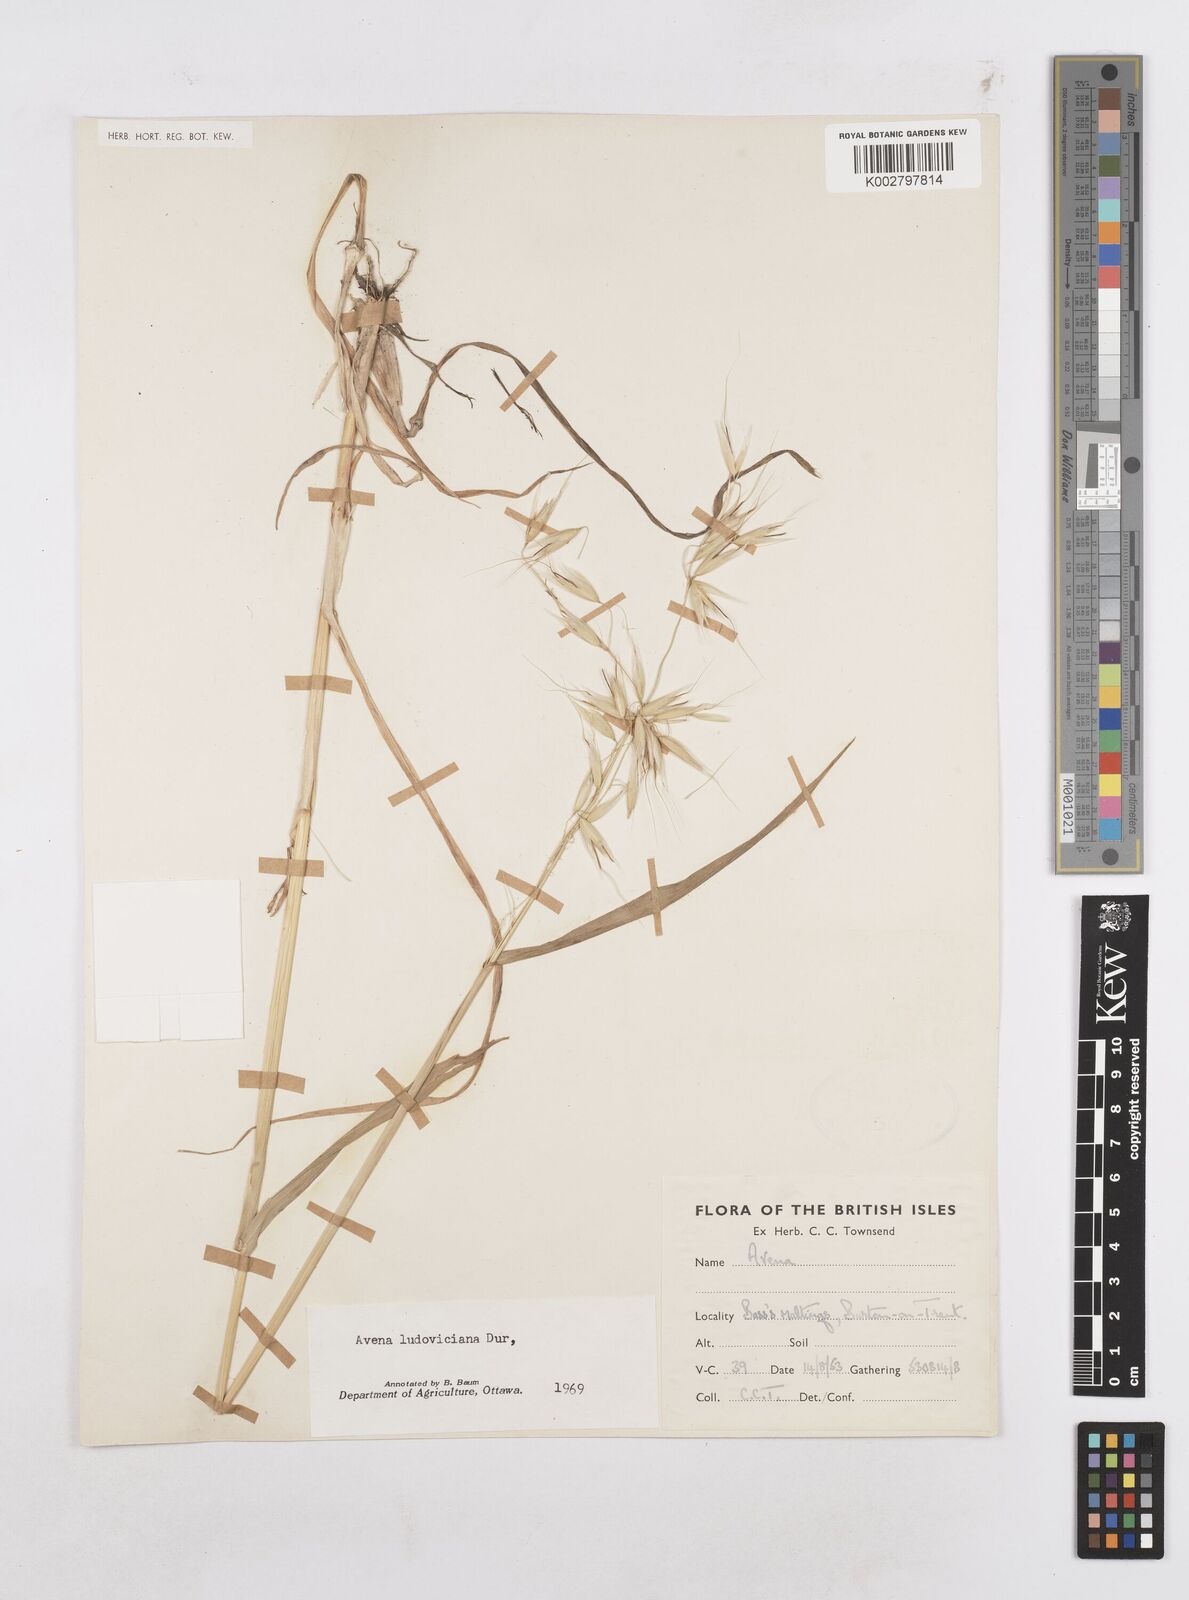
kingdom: Plantae
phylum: Tracheophyta
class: Liliopsida
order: Poales
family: Poaceae
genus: Avena
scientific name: Avena sterilis
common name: Animated oat
